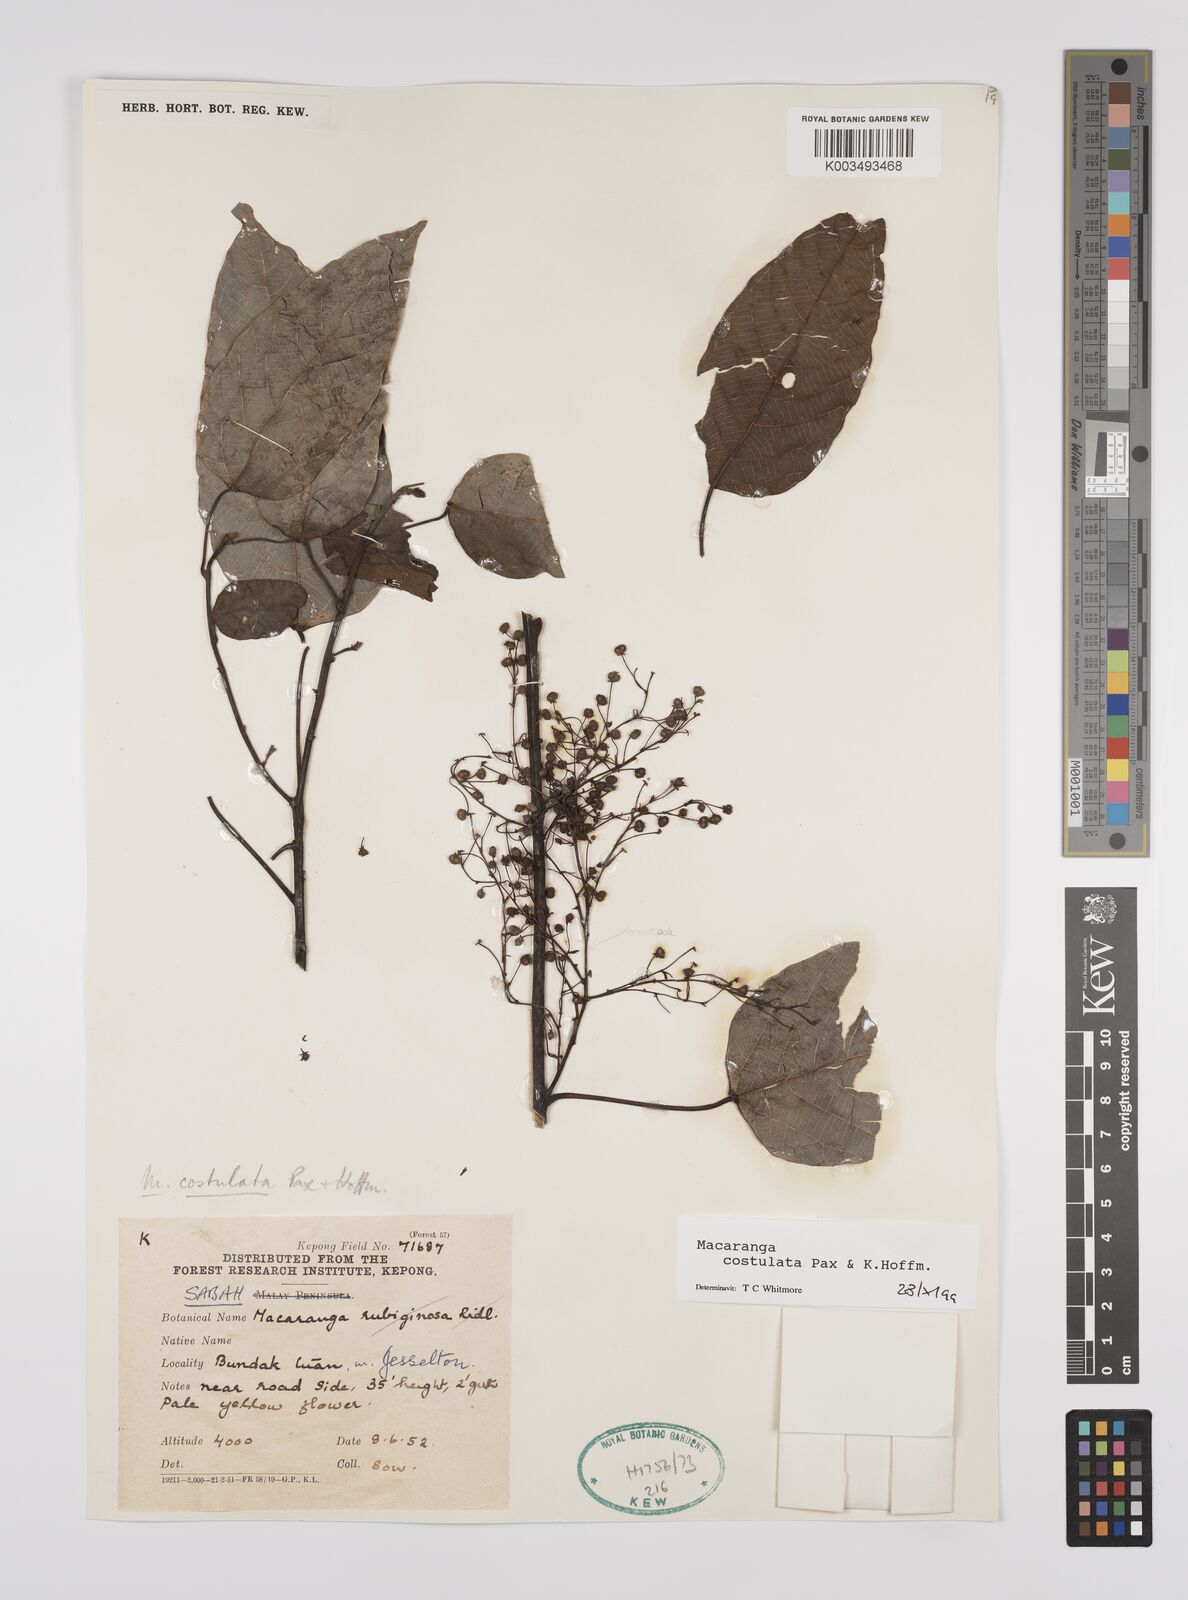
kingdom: Plantae
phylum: Tracheophyta
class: Magnoliopsida
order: Malpighiales
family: Euphorbiaceae
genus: Macaranga
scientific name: Macaranga costulata
